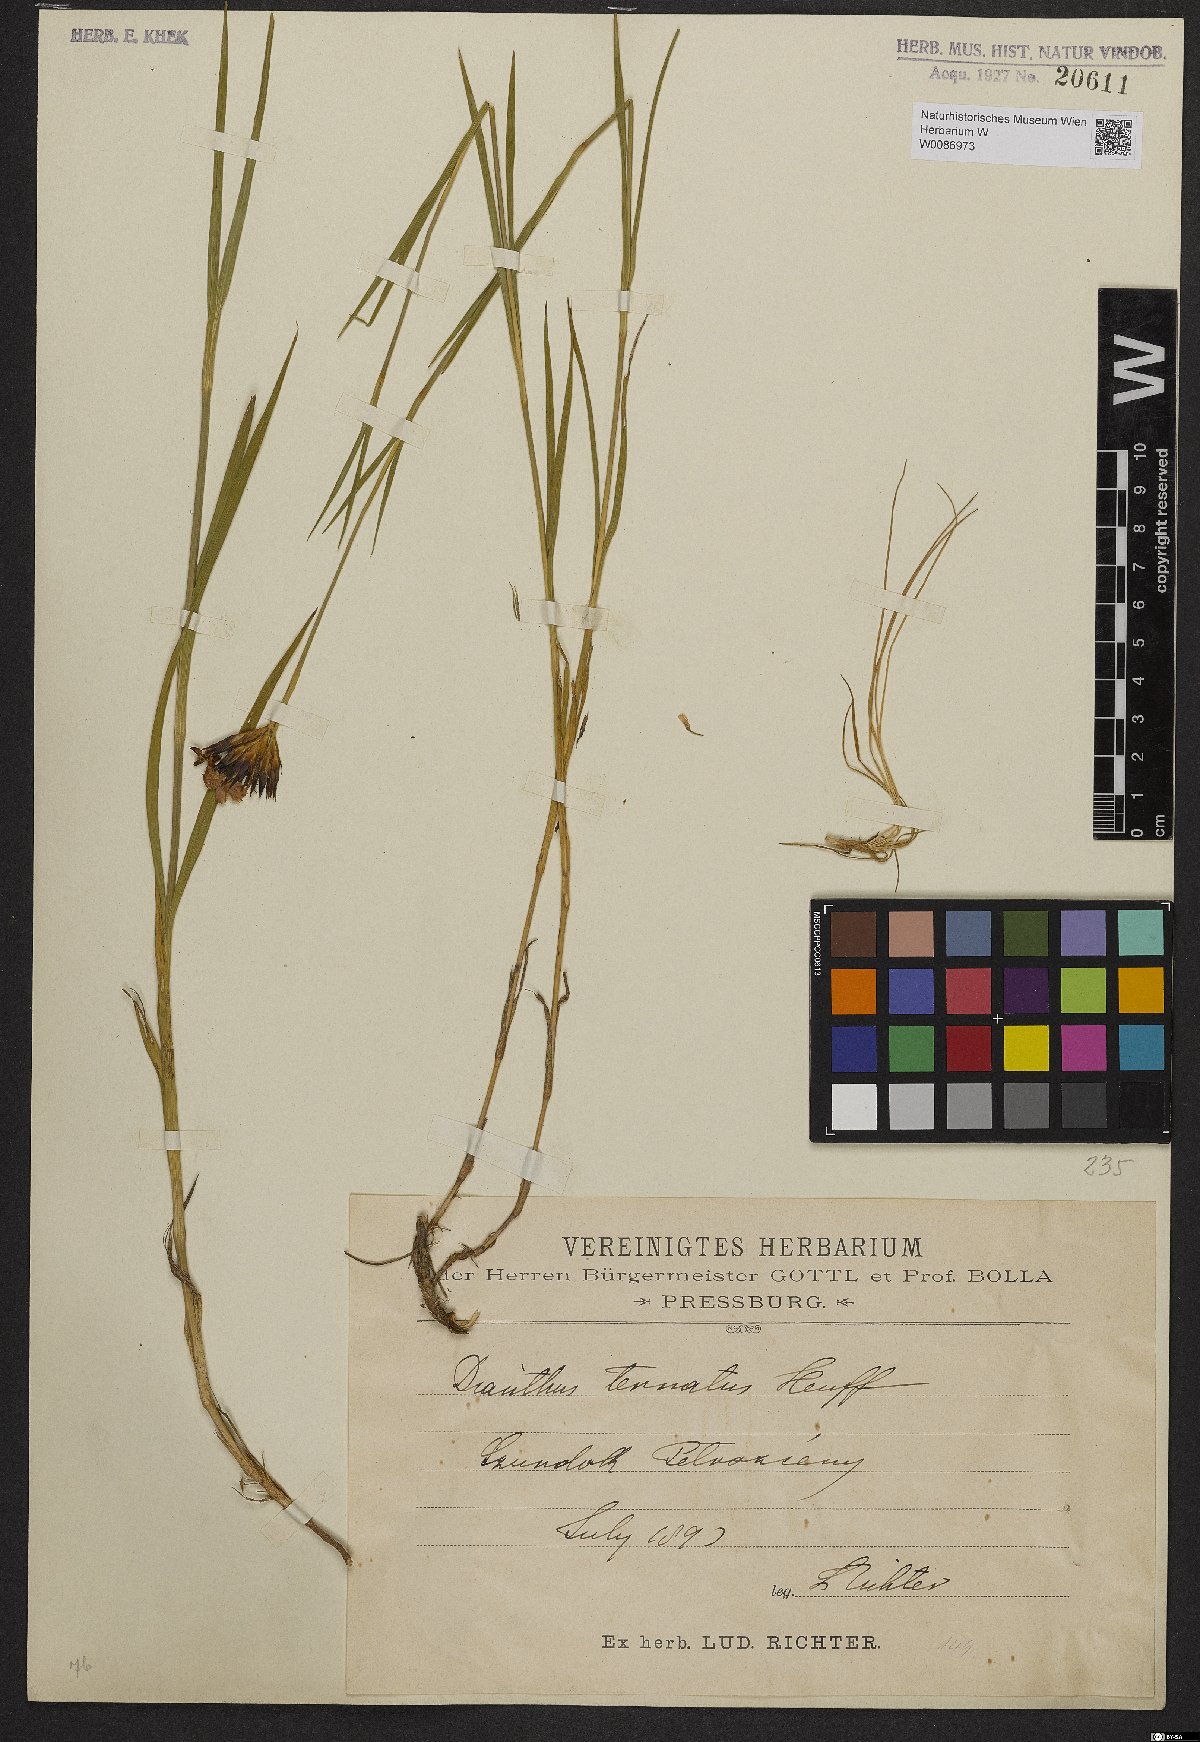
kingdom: Plantae
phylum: Tracheophyta
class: Magnoliopsida
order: Caryophyllales
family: Caryophyllaceae
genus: Dianthus
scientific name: Dianthus
